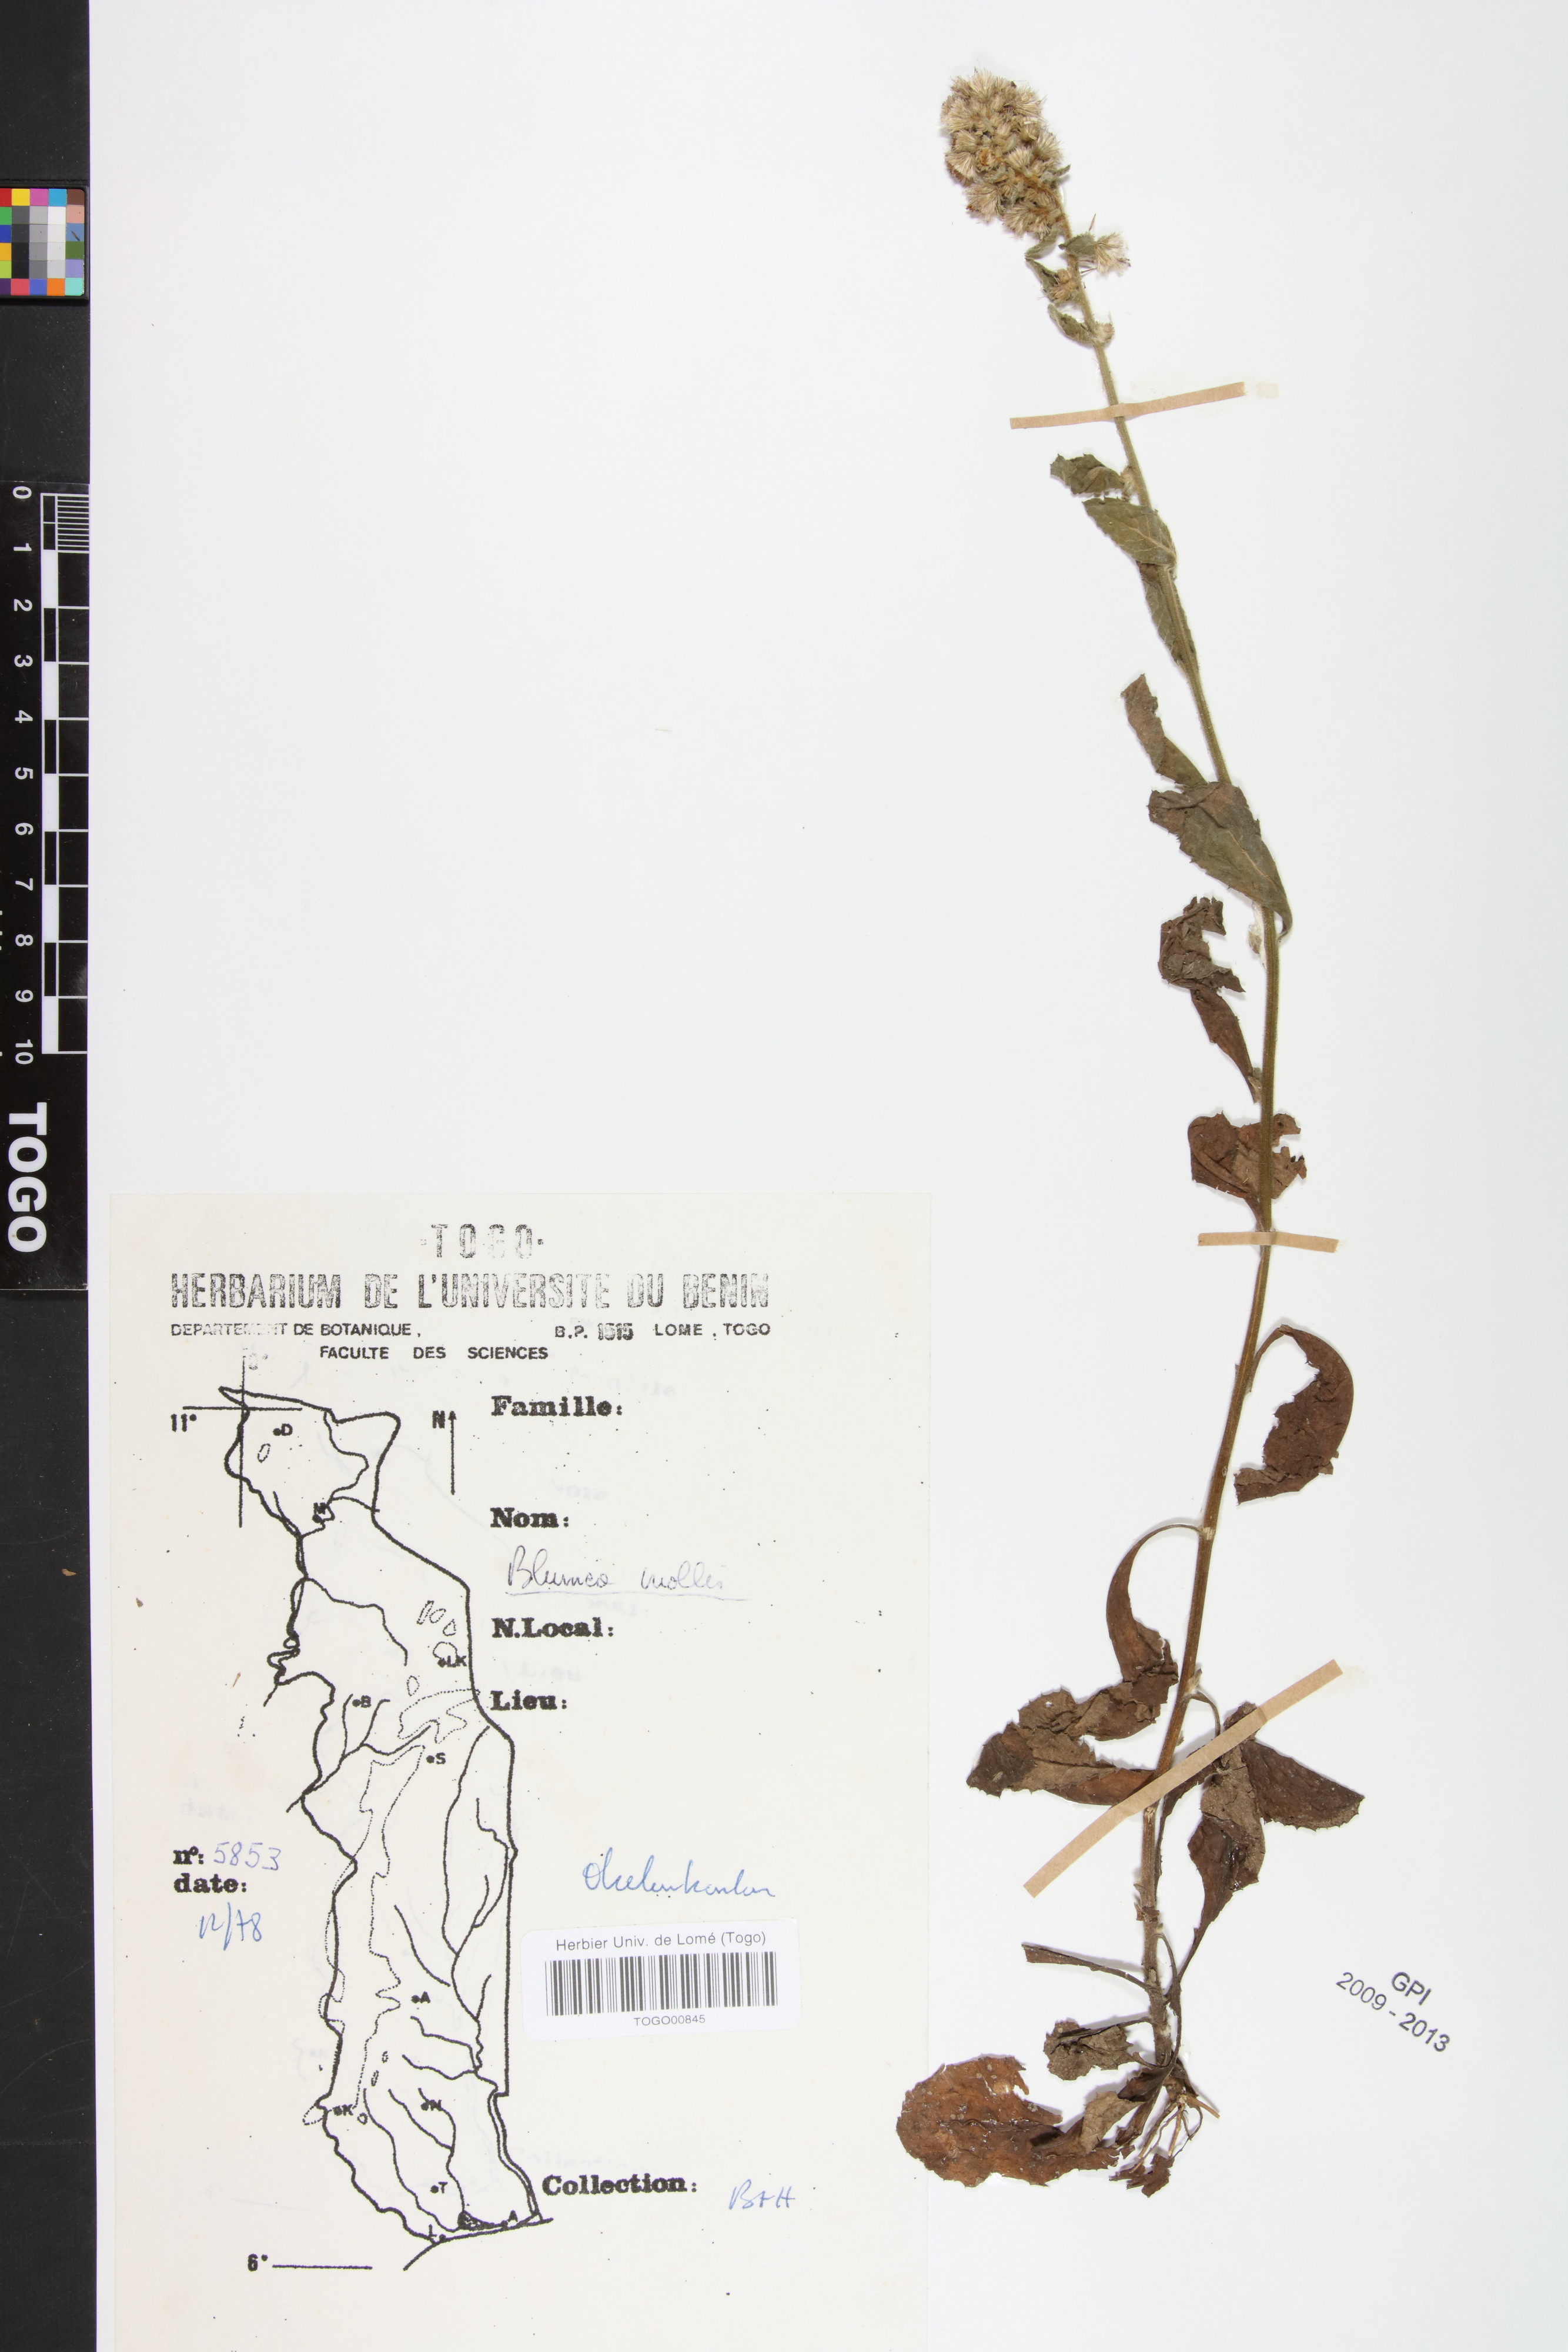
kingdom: Plantae
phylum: Tracheophyta
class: Magnoliopsida
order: Asterales
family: Asteraceae
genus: Blumea
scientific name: Blumea axillaris
